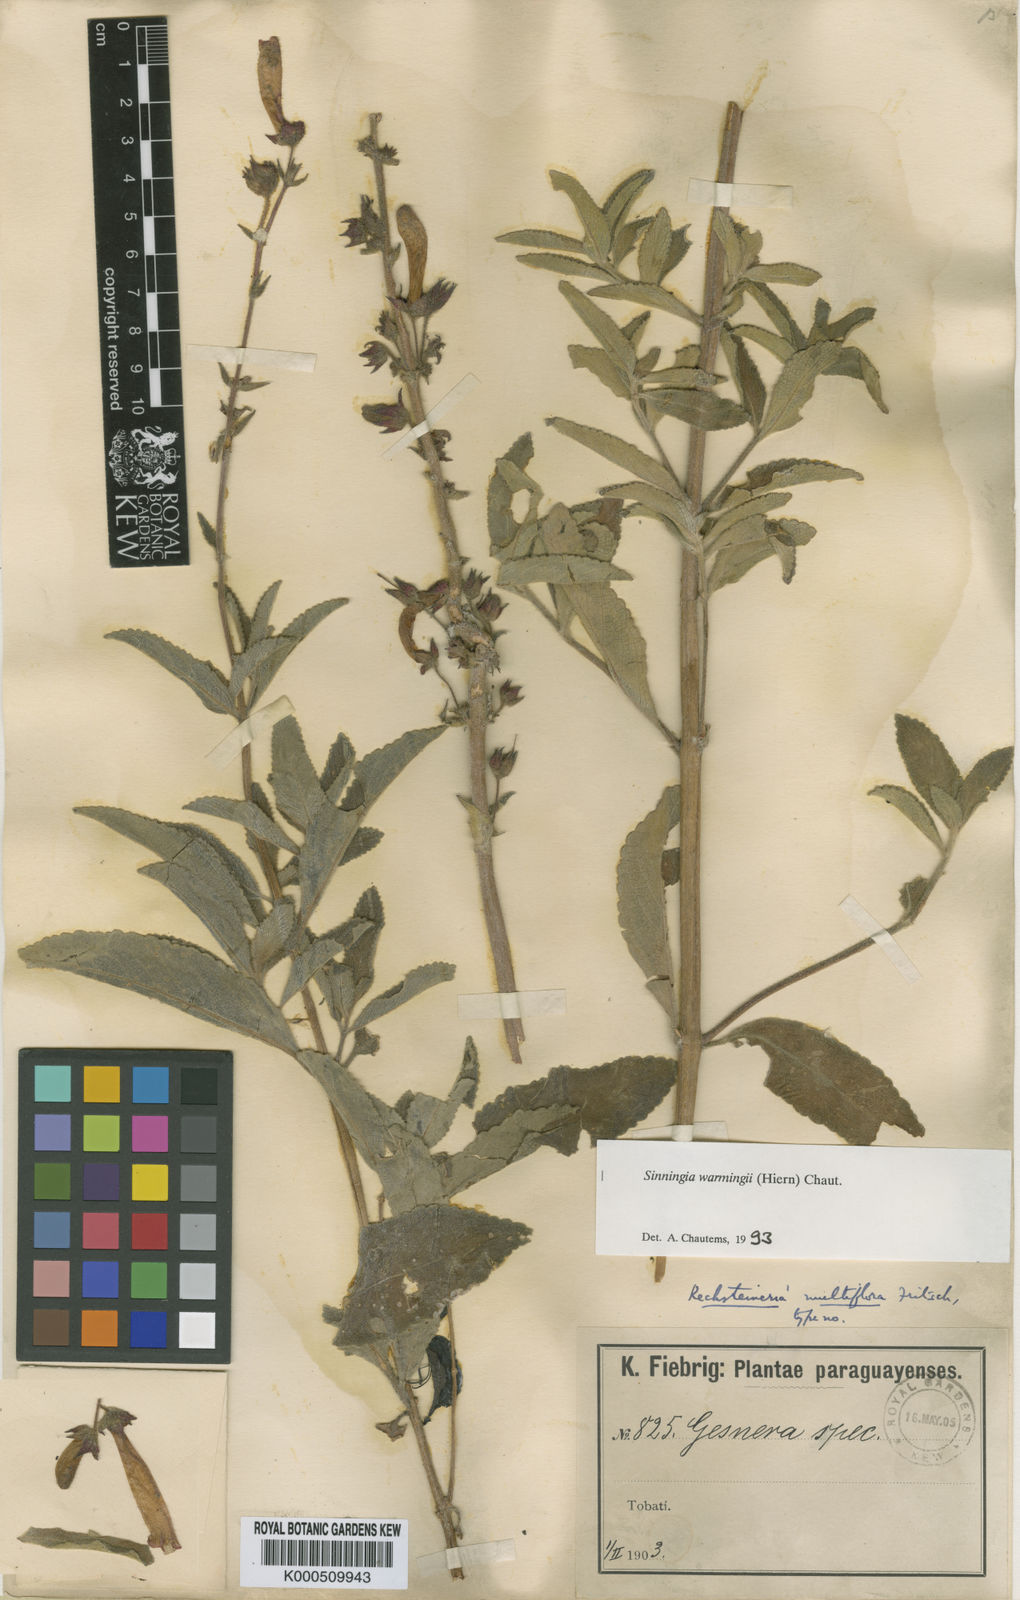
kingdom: Plantae
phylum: Tracheophyta
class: Magnoliopsida
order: Lamiales
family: Gesneriaceae
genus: Sinningia
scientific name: Sinningia warmingii
